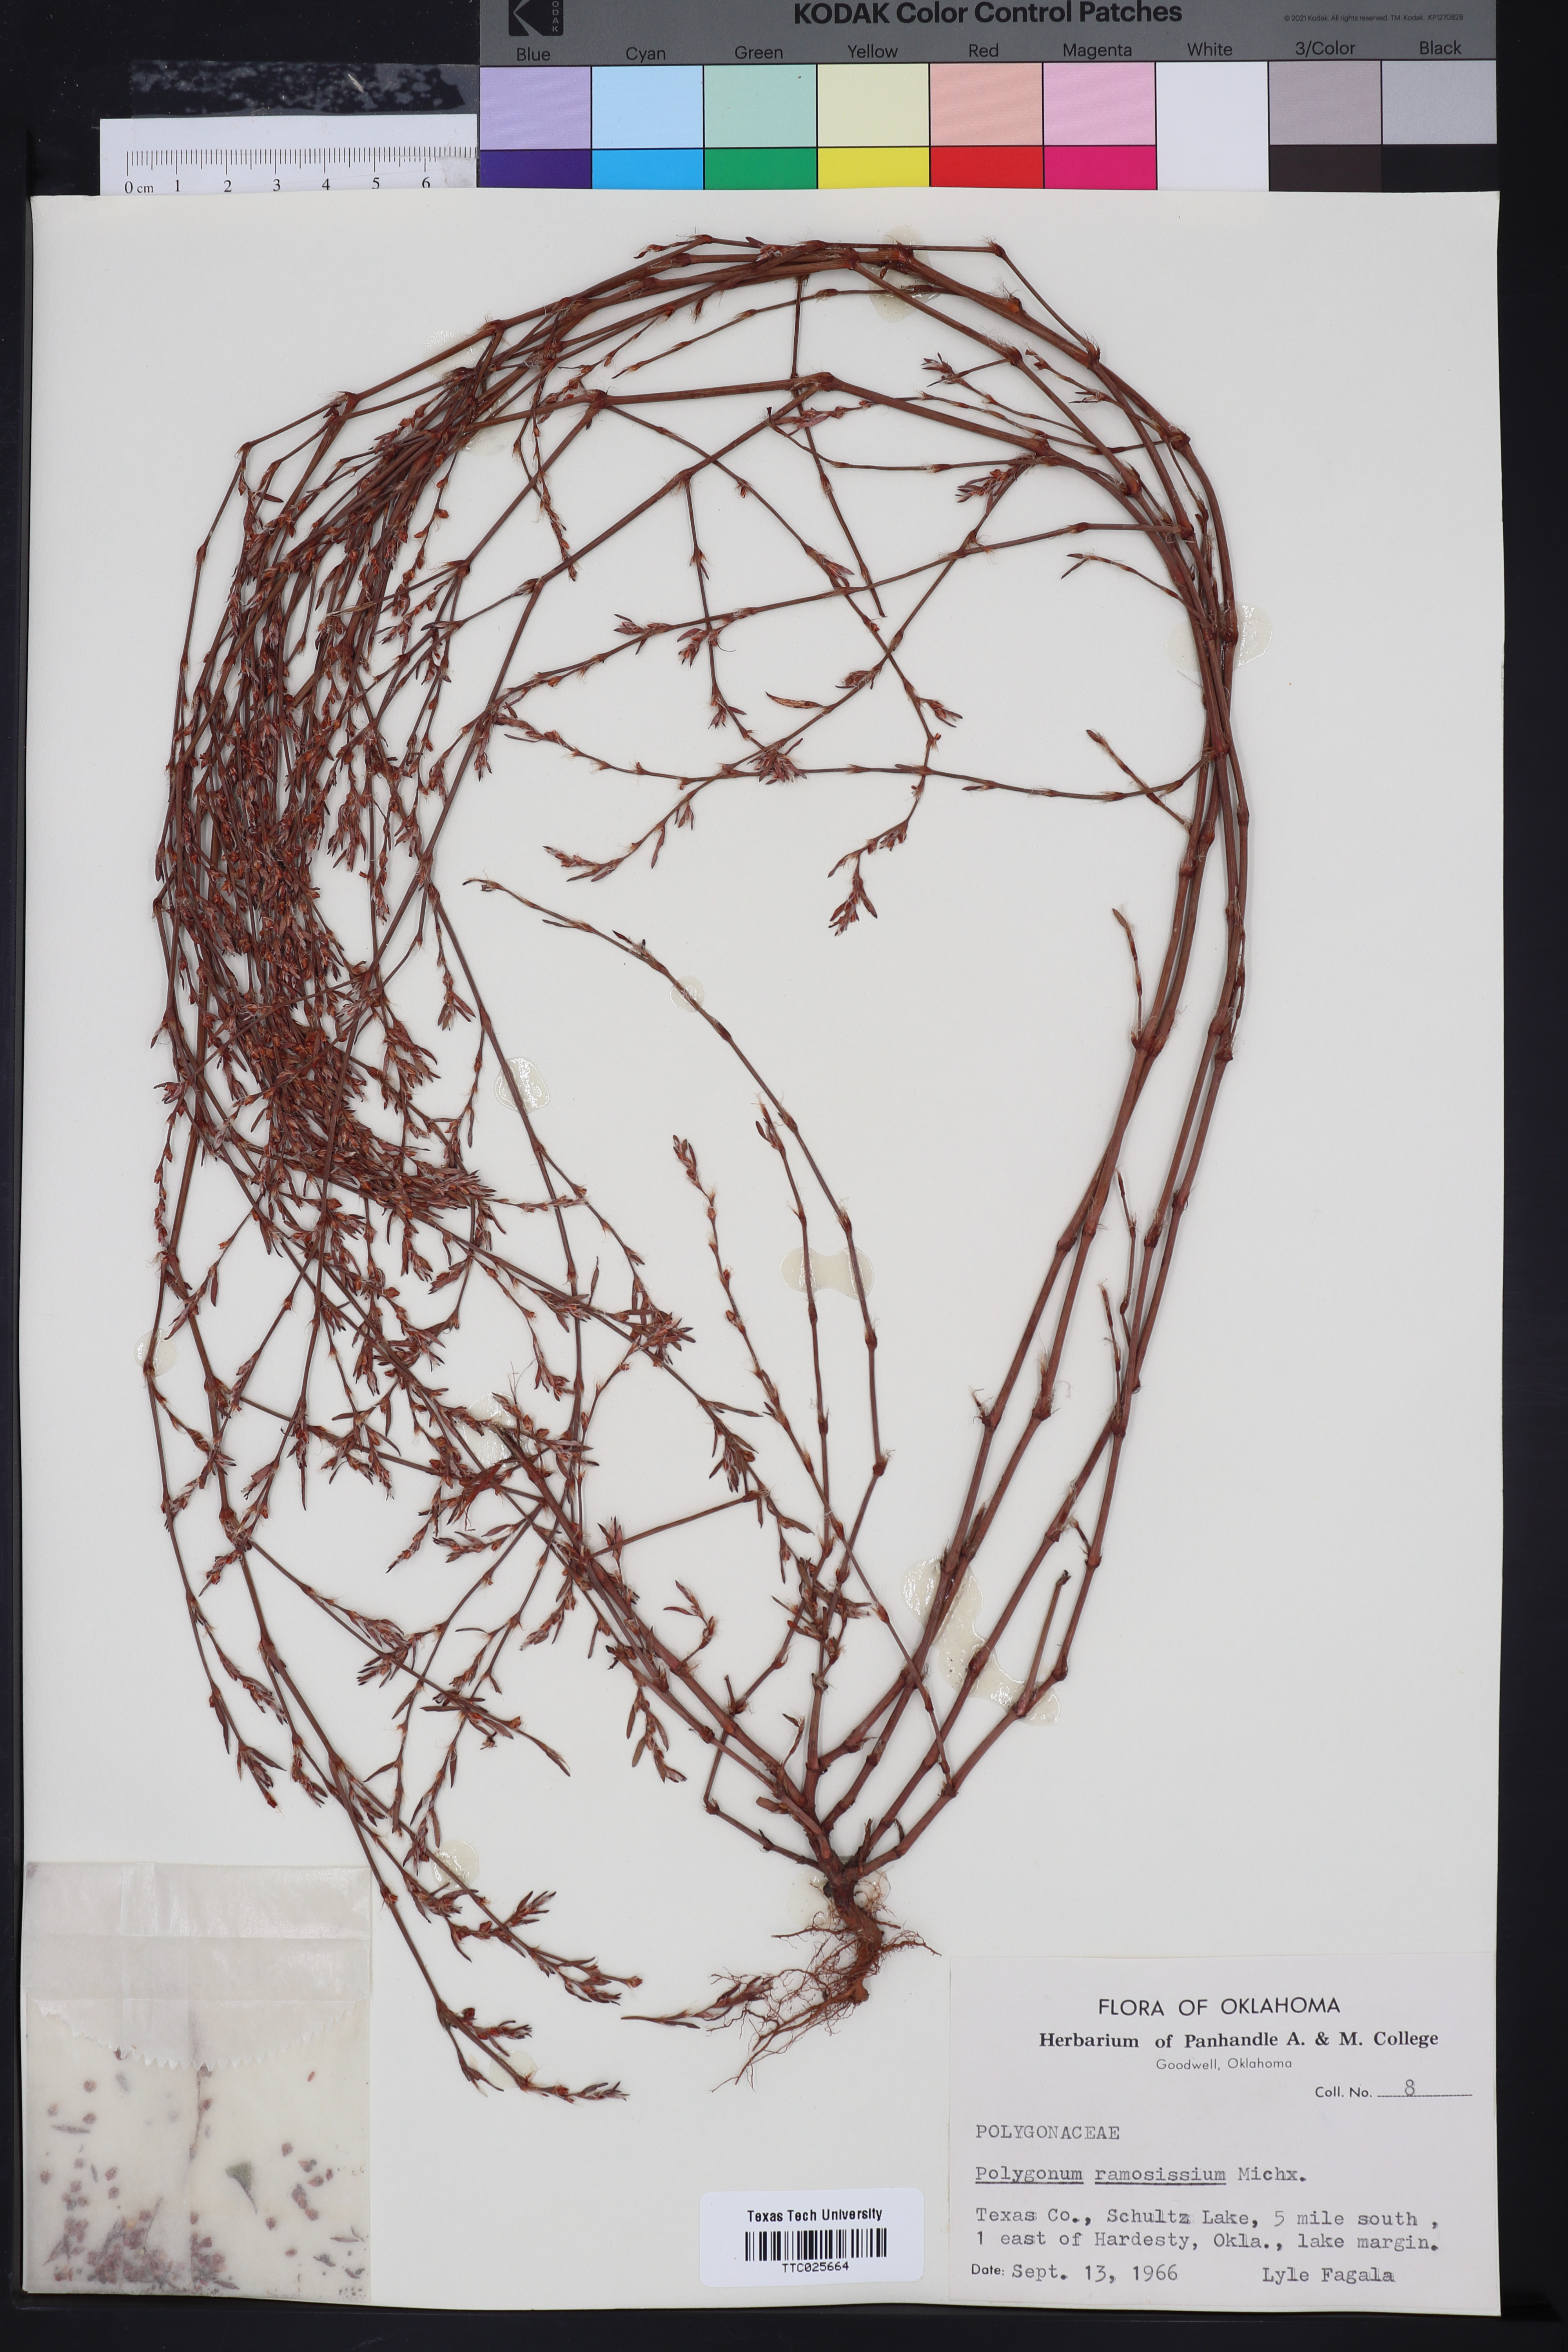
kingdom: Plantae
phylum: Tracheophyta
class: Magnoliopsida
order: Caryophyllales
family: Polygonaceae
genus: Polygonum
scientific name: Polygonum ramosissimum
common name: Bushy knotweed
